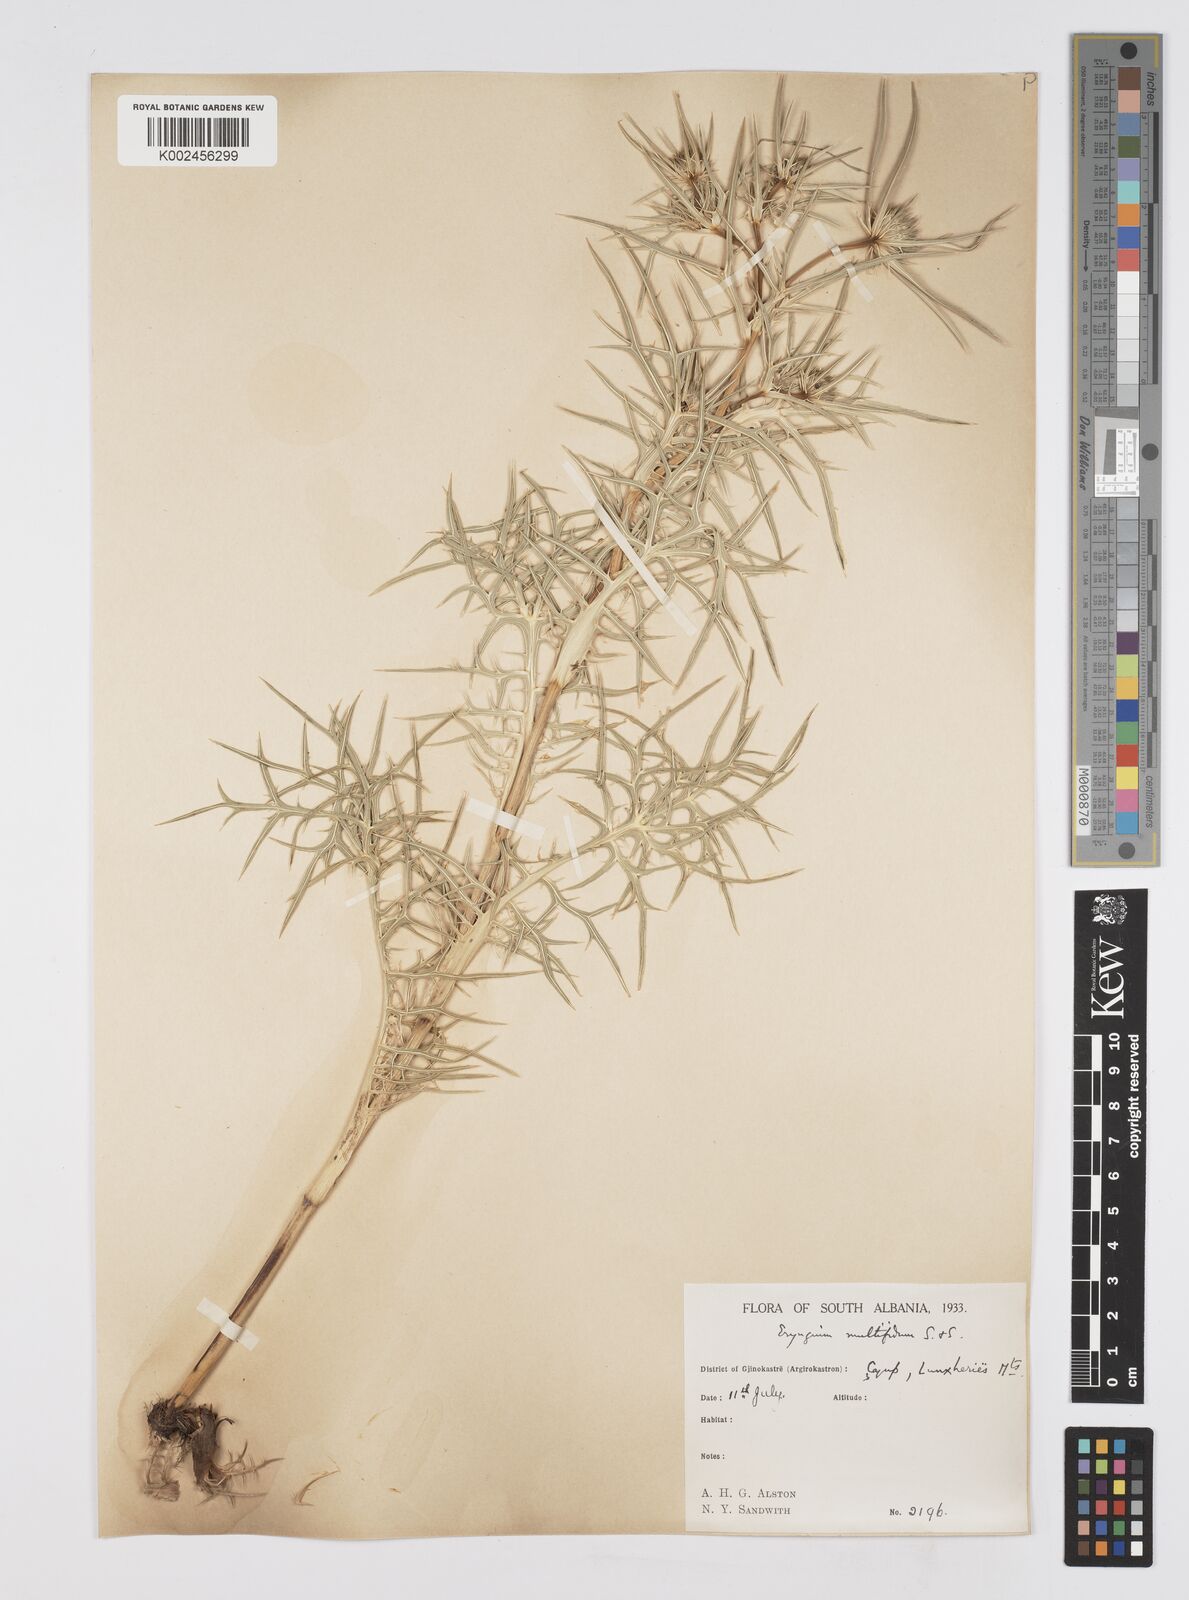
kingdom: Plantae
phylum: Tracheophyta
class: Magnoliopsida
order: Apiales
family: Apiaceae
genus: Eryngium
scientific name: Eryngium amethystinum
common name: Amethyst eryngo
